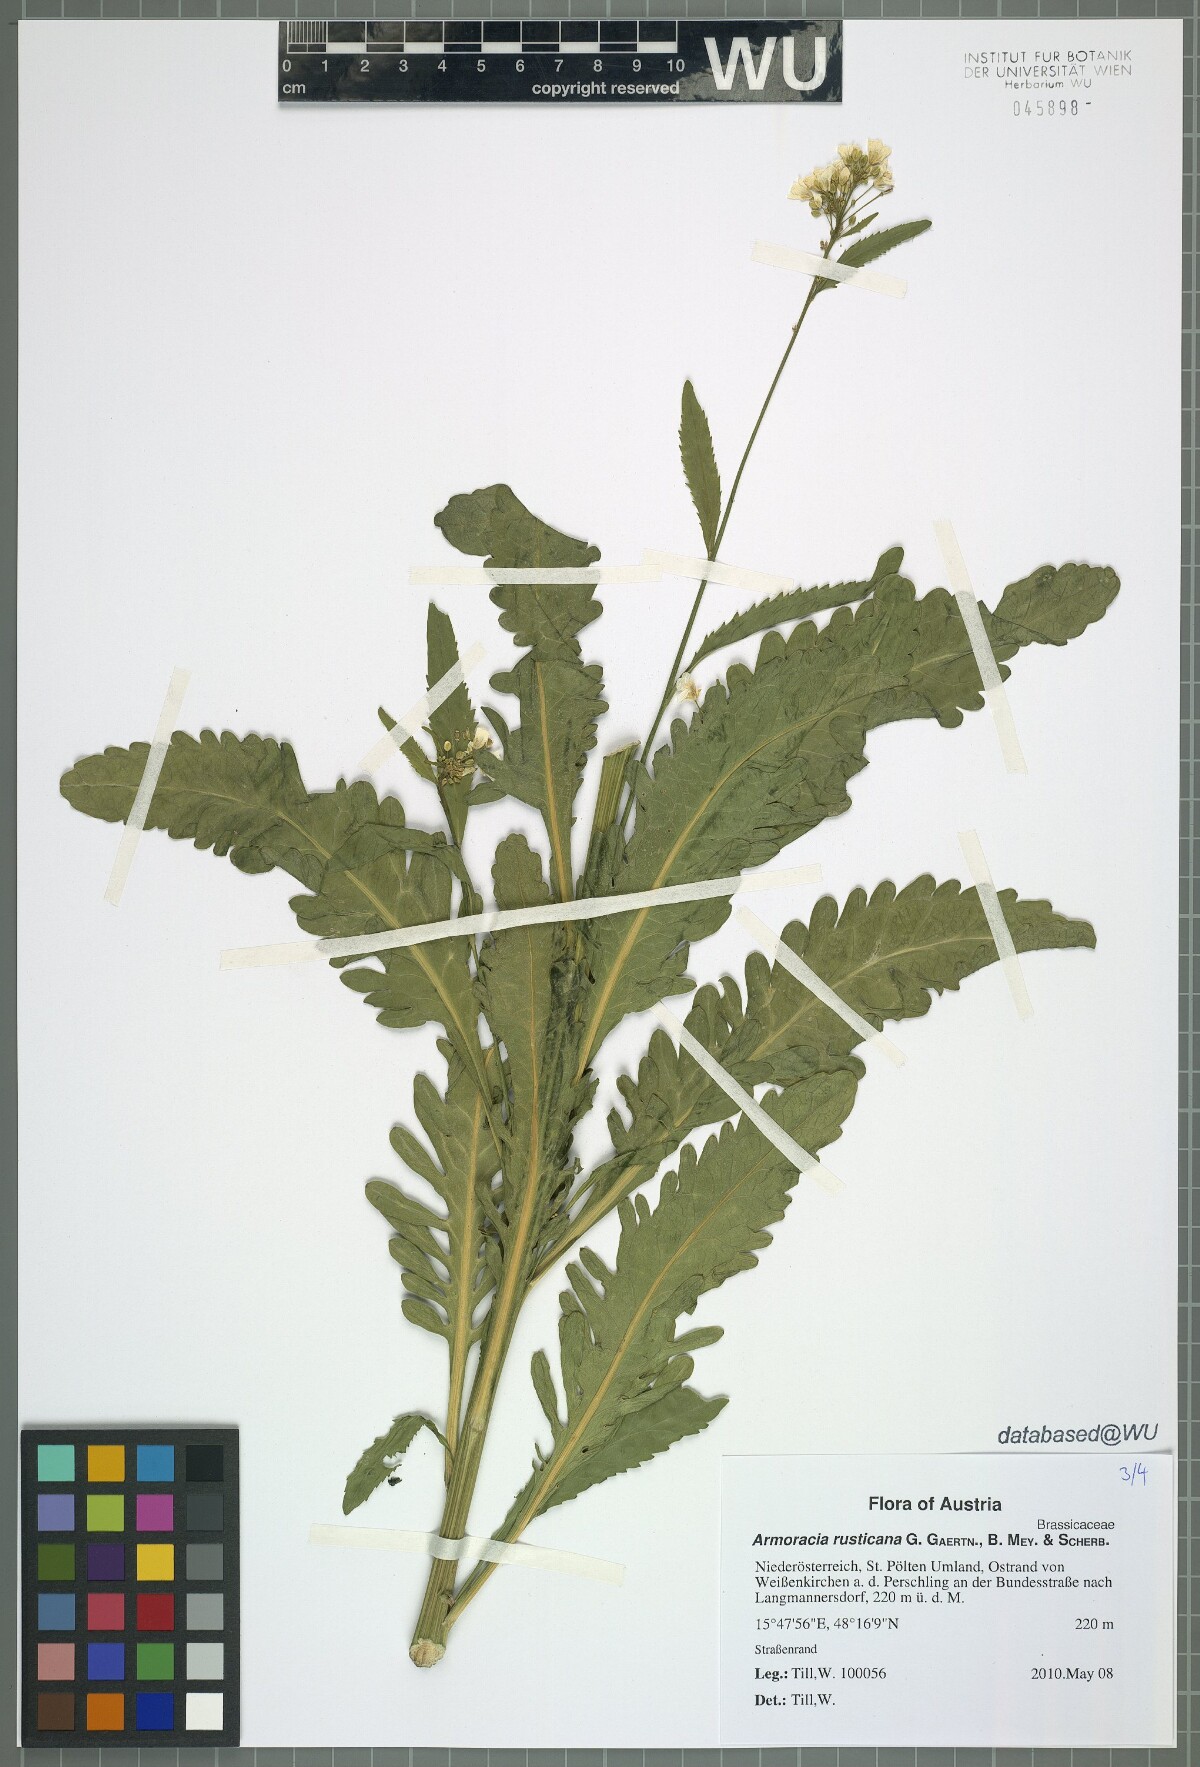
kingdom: Plantae
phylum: Tracheophyta
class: Magnoliopsida
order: Brassicales
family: Brassicaceae
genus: Armoracia
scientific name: Armoracia rusticana
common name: Horseradish
